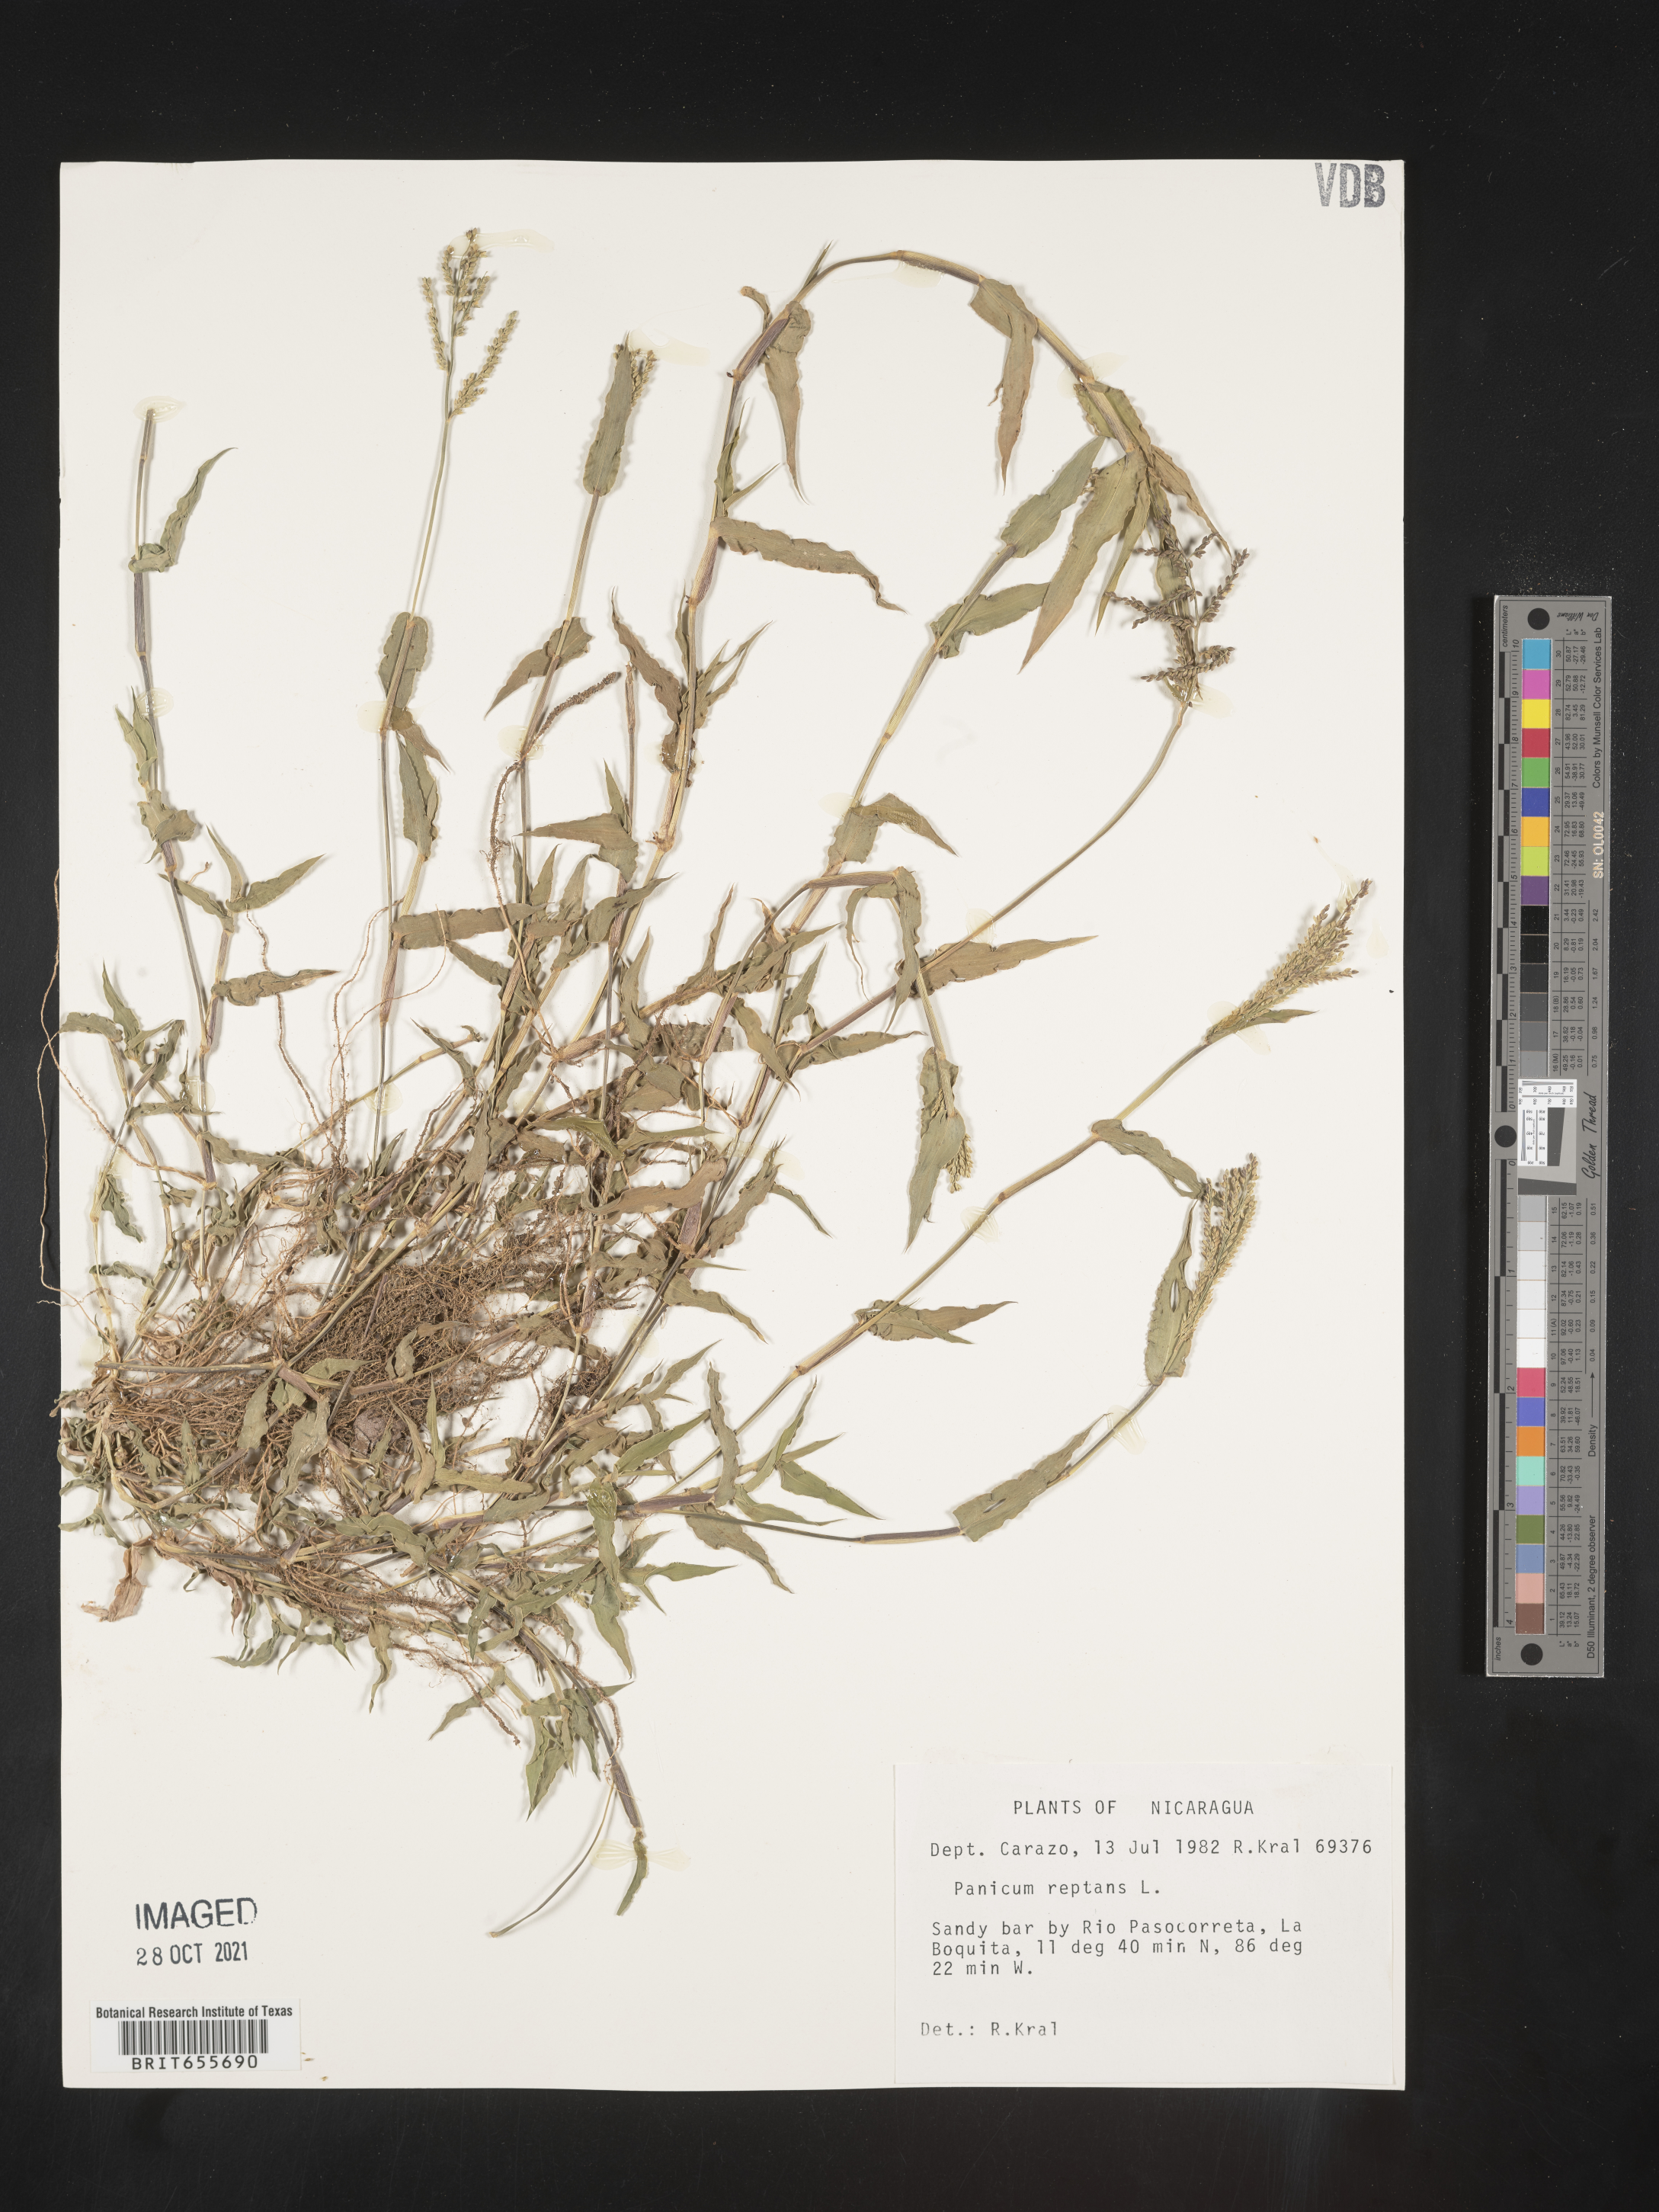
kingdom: Plantae
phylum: Tracheophyta
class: Liliopsida
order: Poales
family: Poaceae
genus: Panicum
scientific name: Panicum
